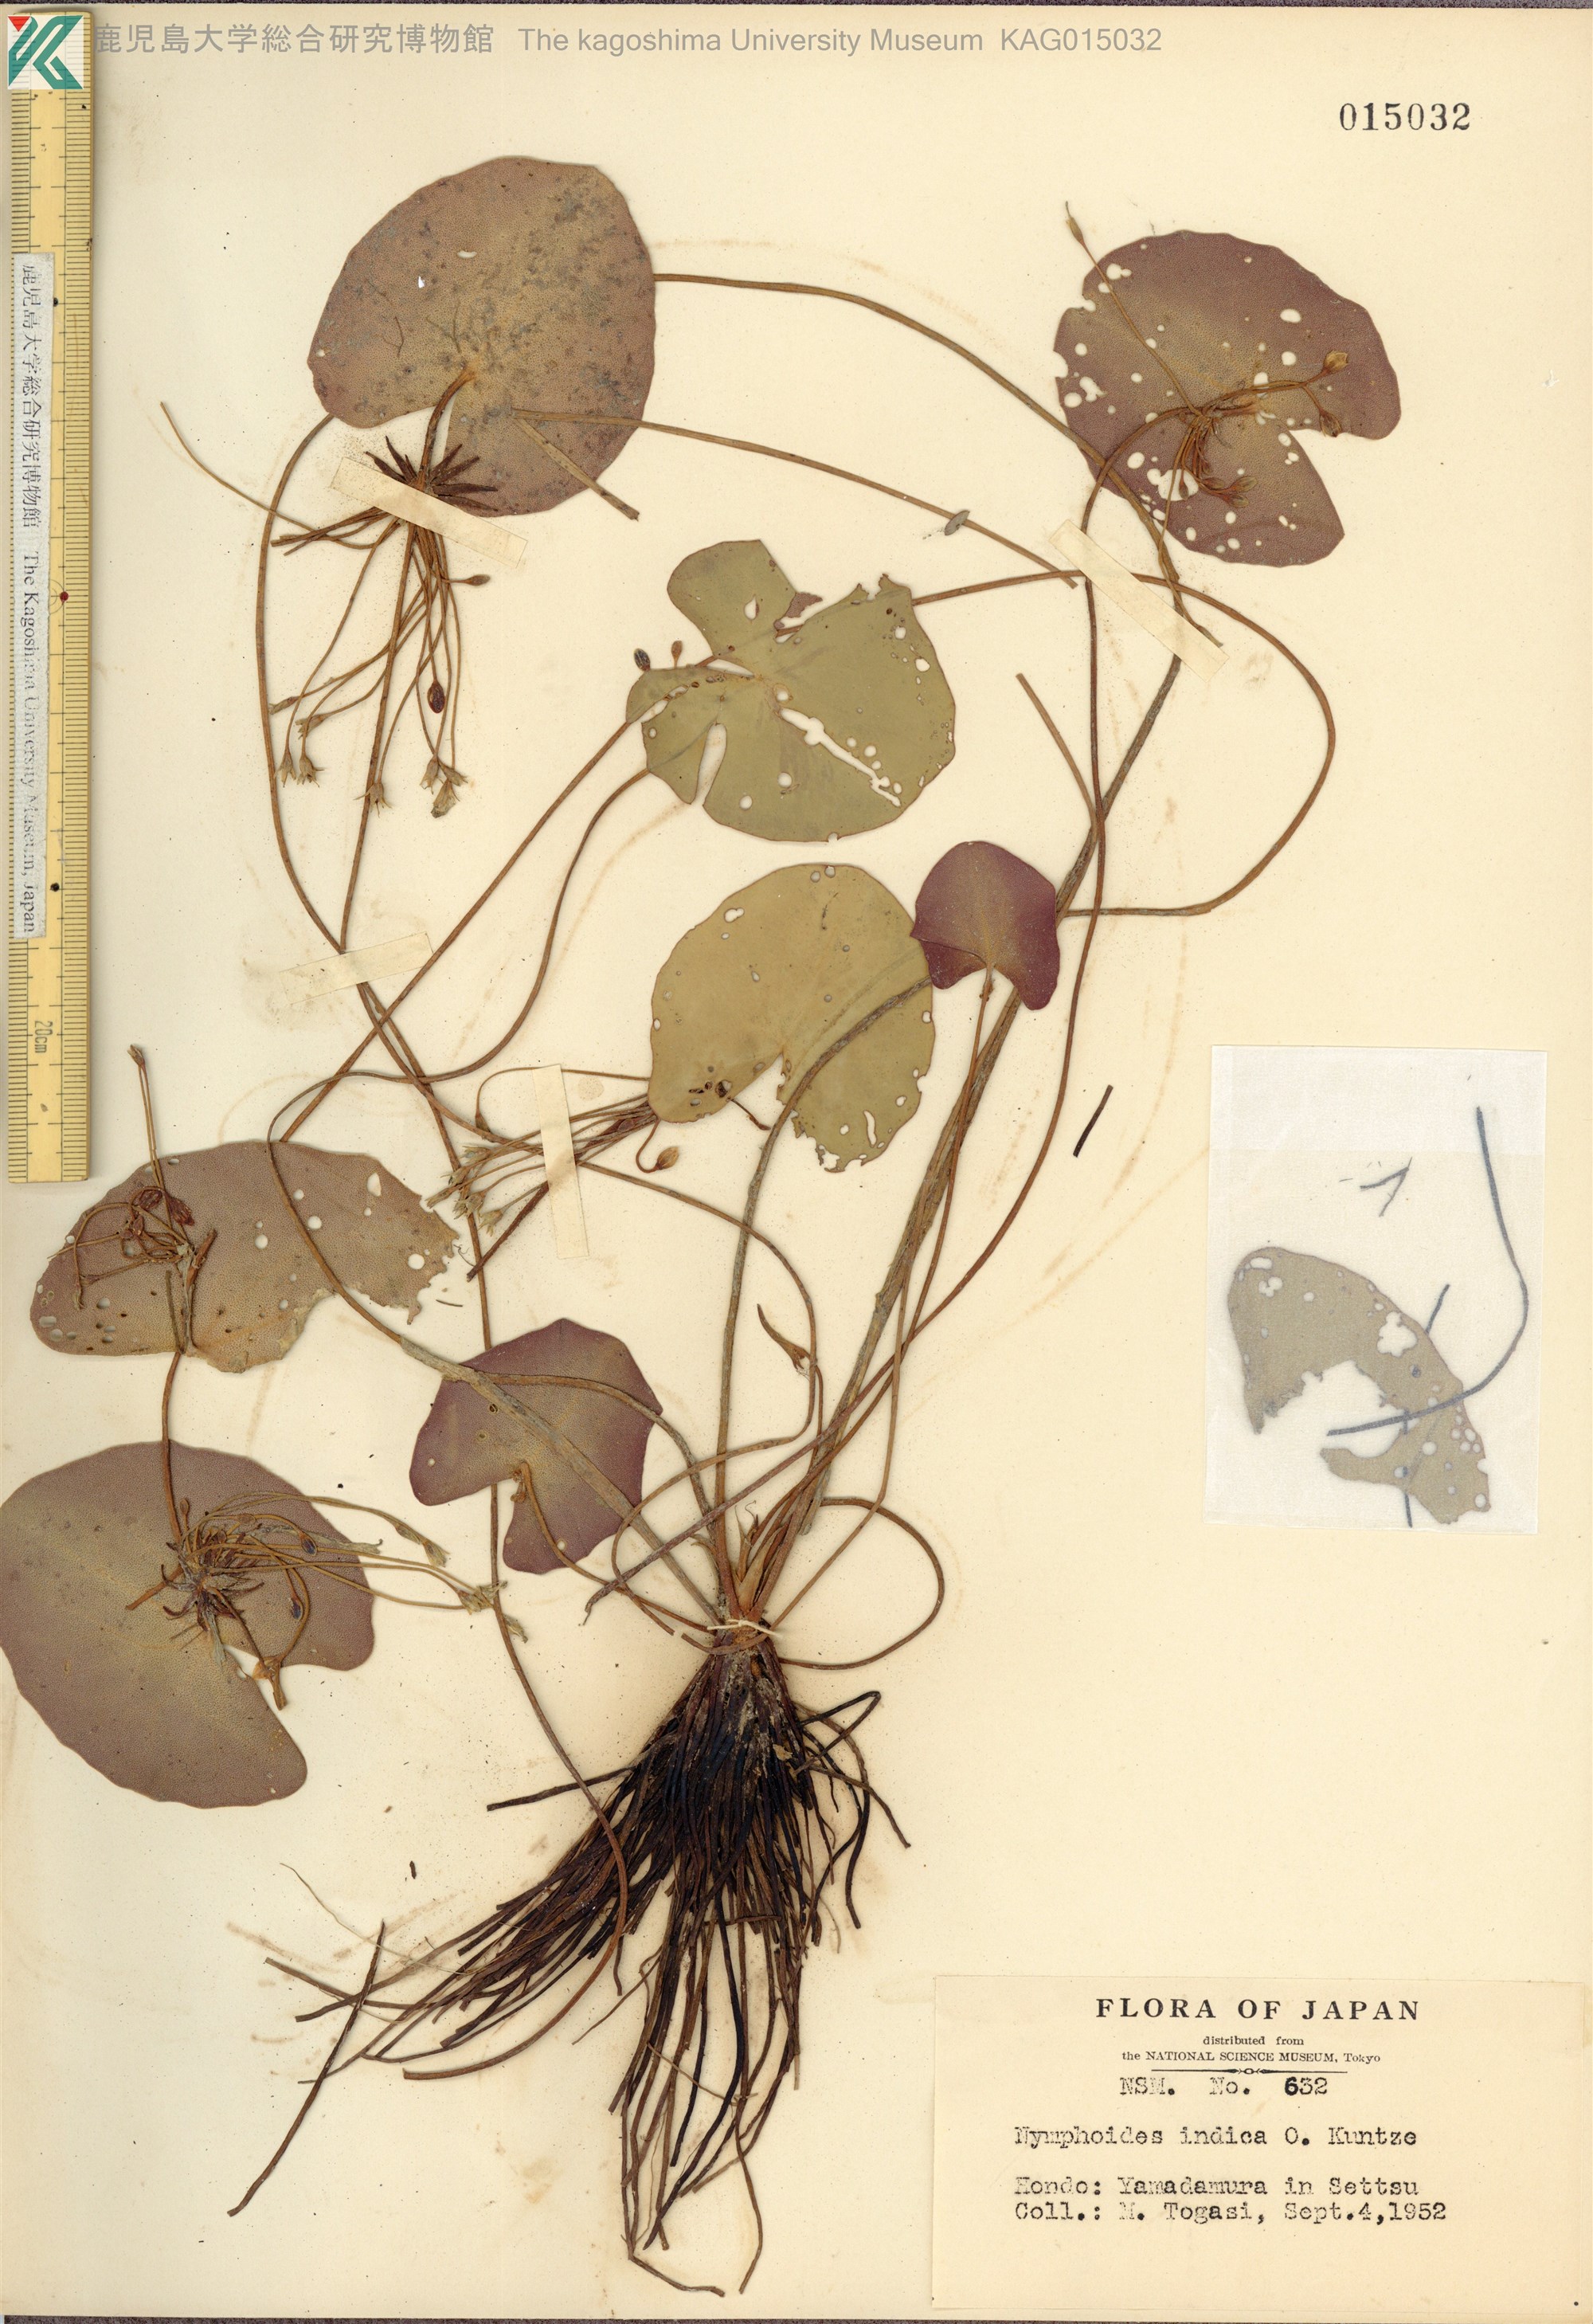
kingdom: Plantae
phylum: Tracheophyta
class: Magnoliopsida
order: Asterales
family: Menyanthaceae
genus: Nymphoides
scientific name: Nymphoides indica
